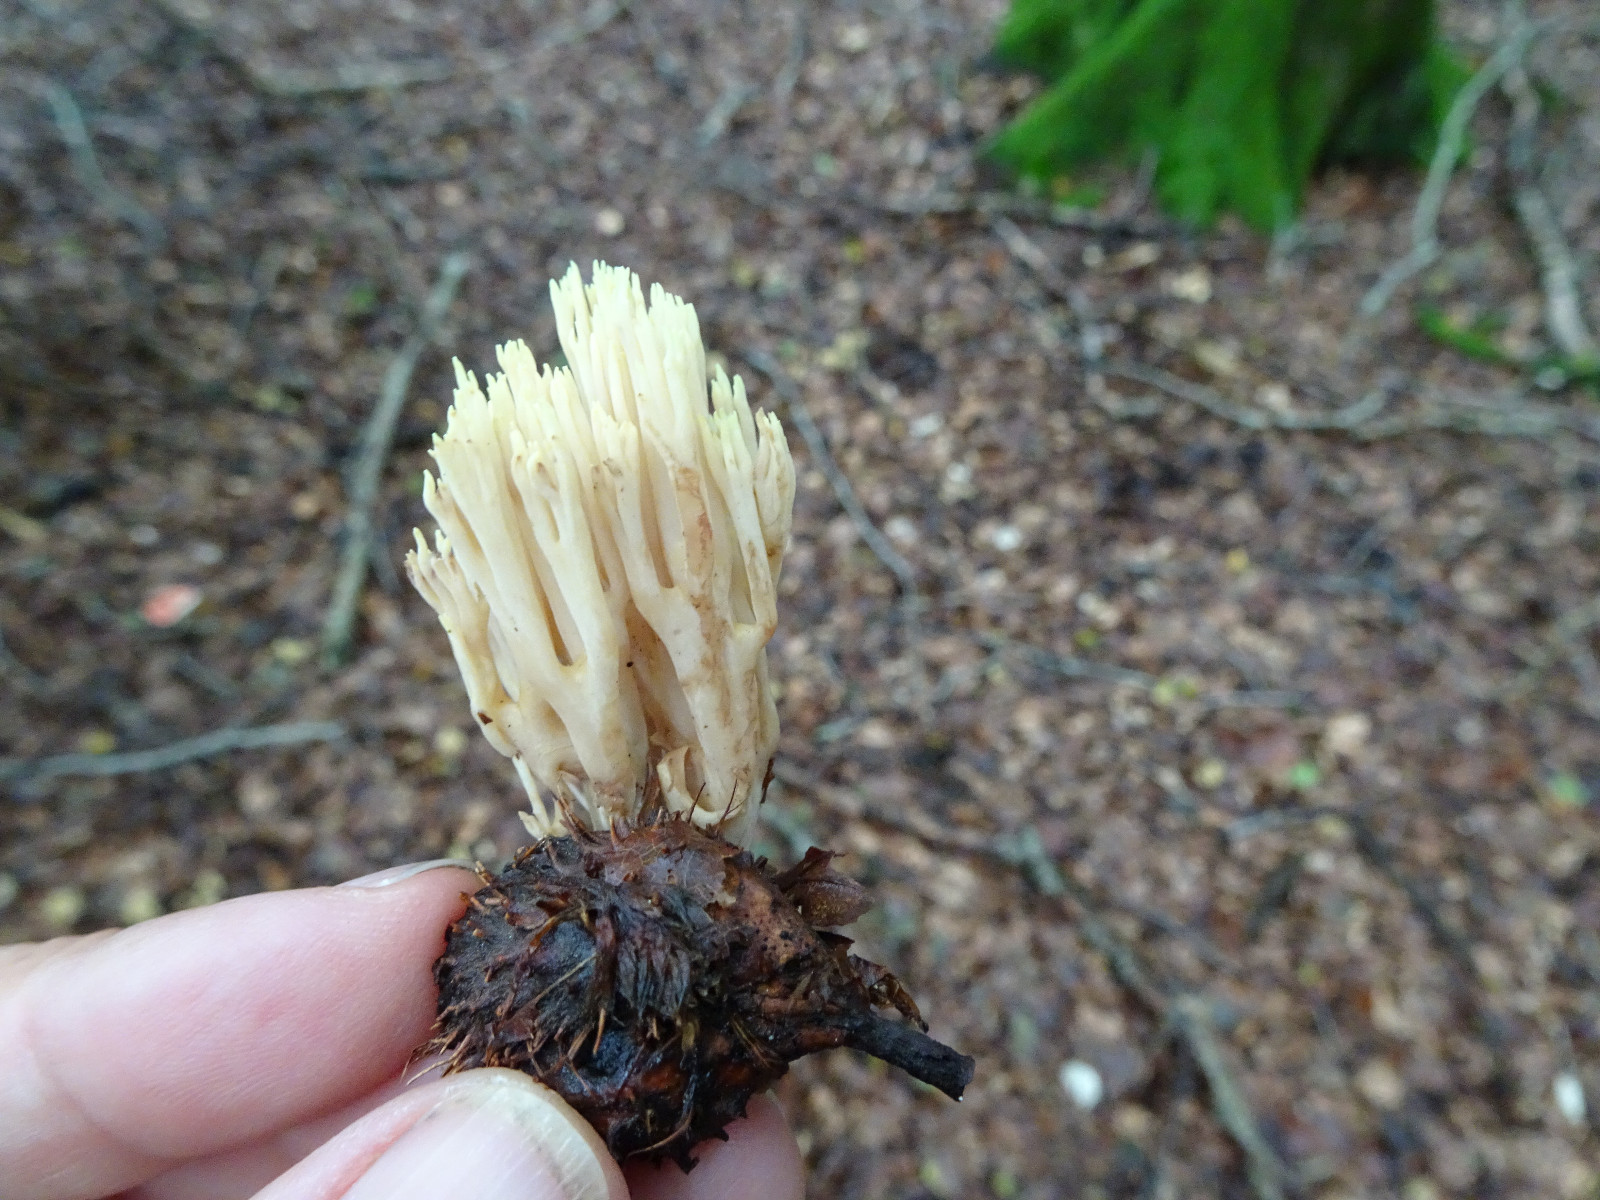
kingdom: Fungi
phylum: Basidiomycota
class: Agaricomycetes
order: Gomphales
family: Gomphaceae
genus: Ramaria
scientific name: Ramaria stricta
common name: rank koralsvamp
